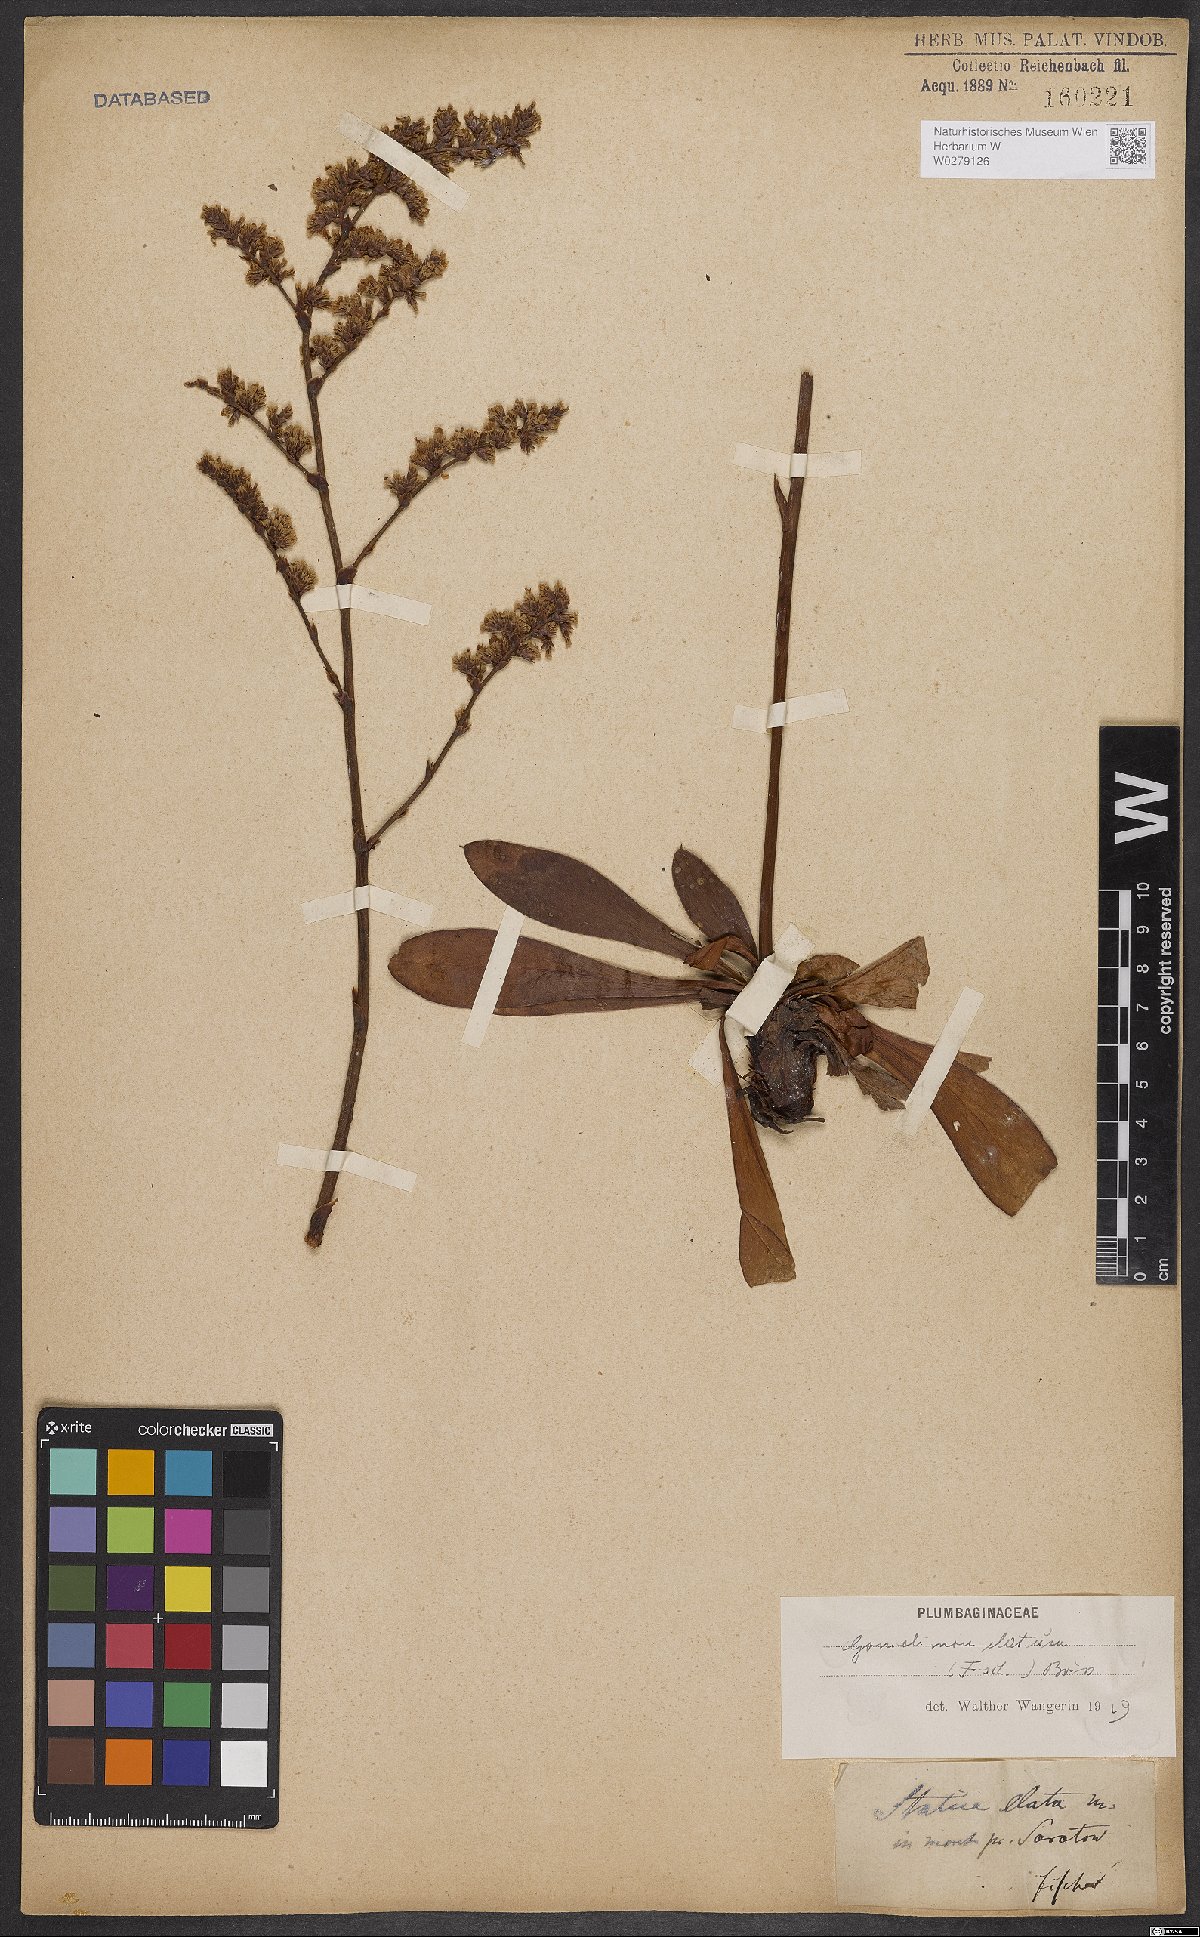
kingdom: Plantae
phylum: Tracheophyta
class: Magnoliopsida
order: Caryophyllales
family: Plumbaginaceae
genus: Goniolimon
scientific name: Goniolimon elatum
